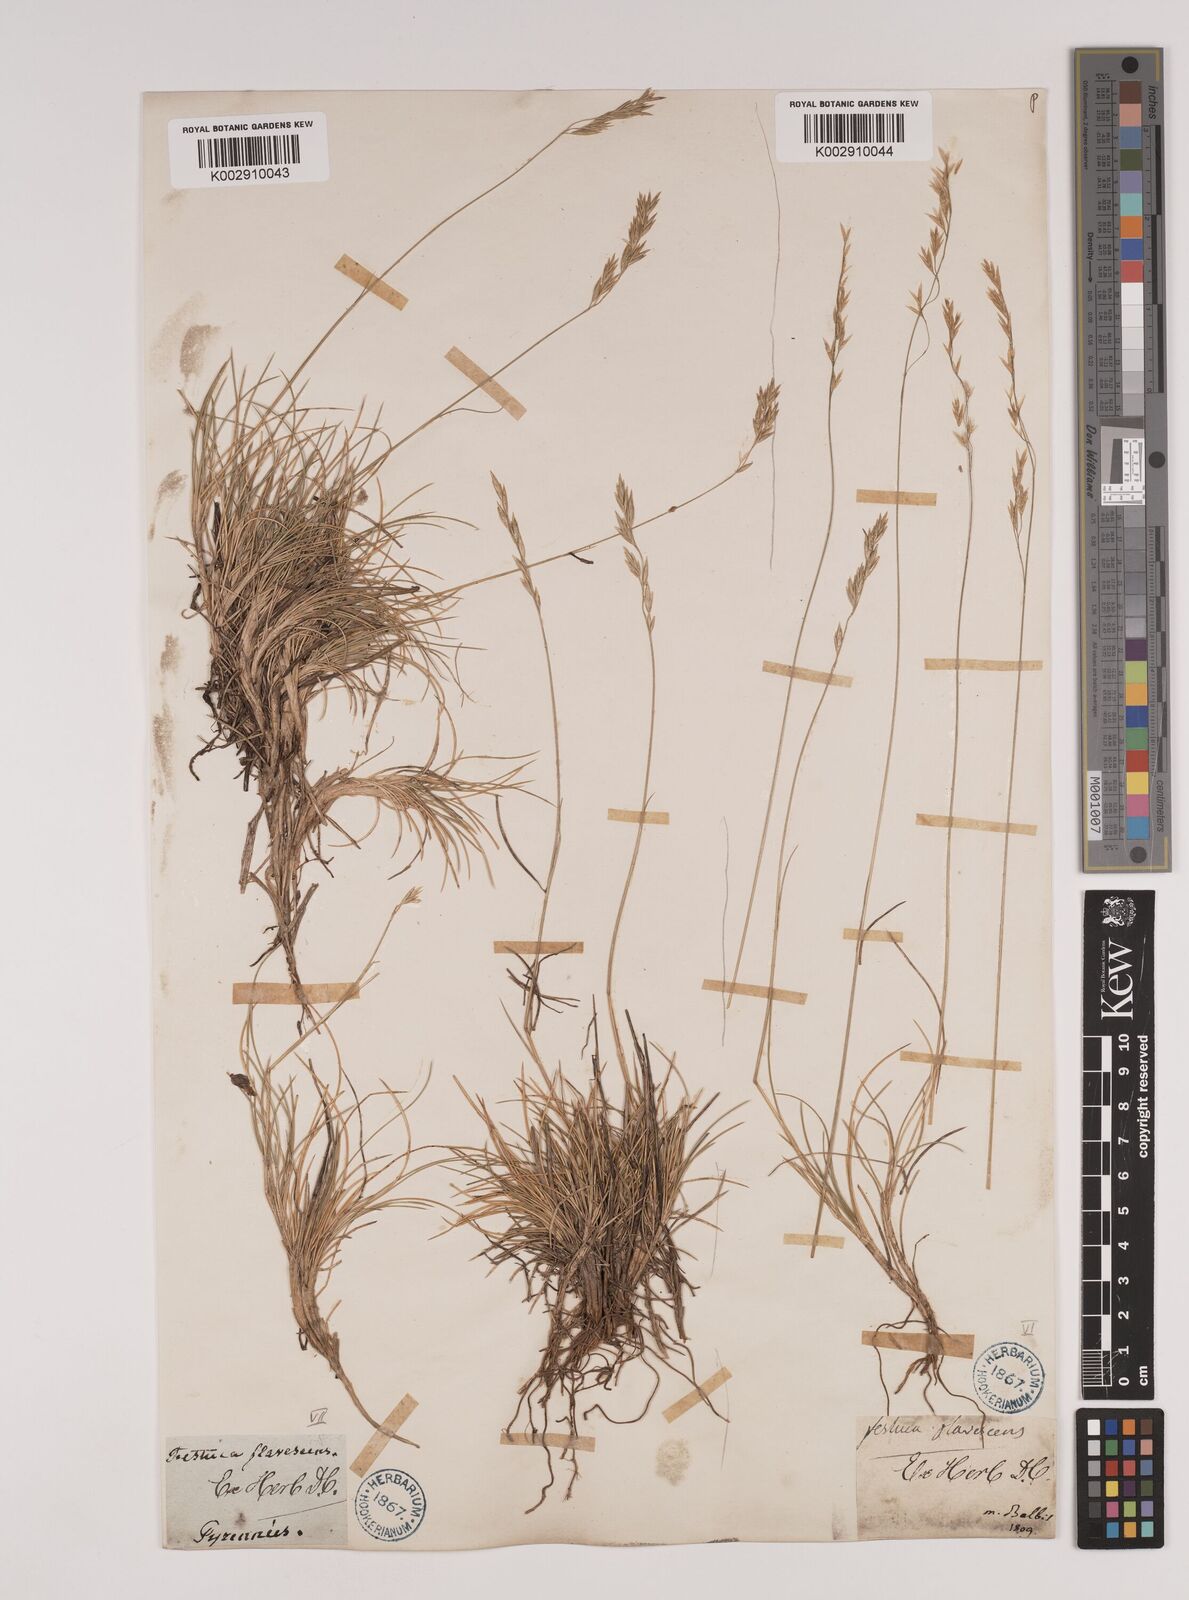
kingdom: Plantae
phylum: Tracheophyta
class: Liliopsida
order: Poales
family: Poaceae
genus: Festuca
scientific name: Festuca gautieri
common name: Spiky fescue
